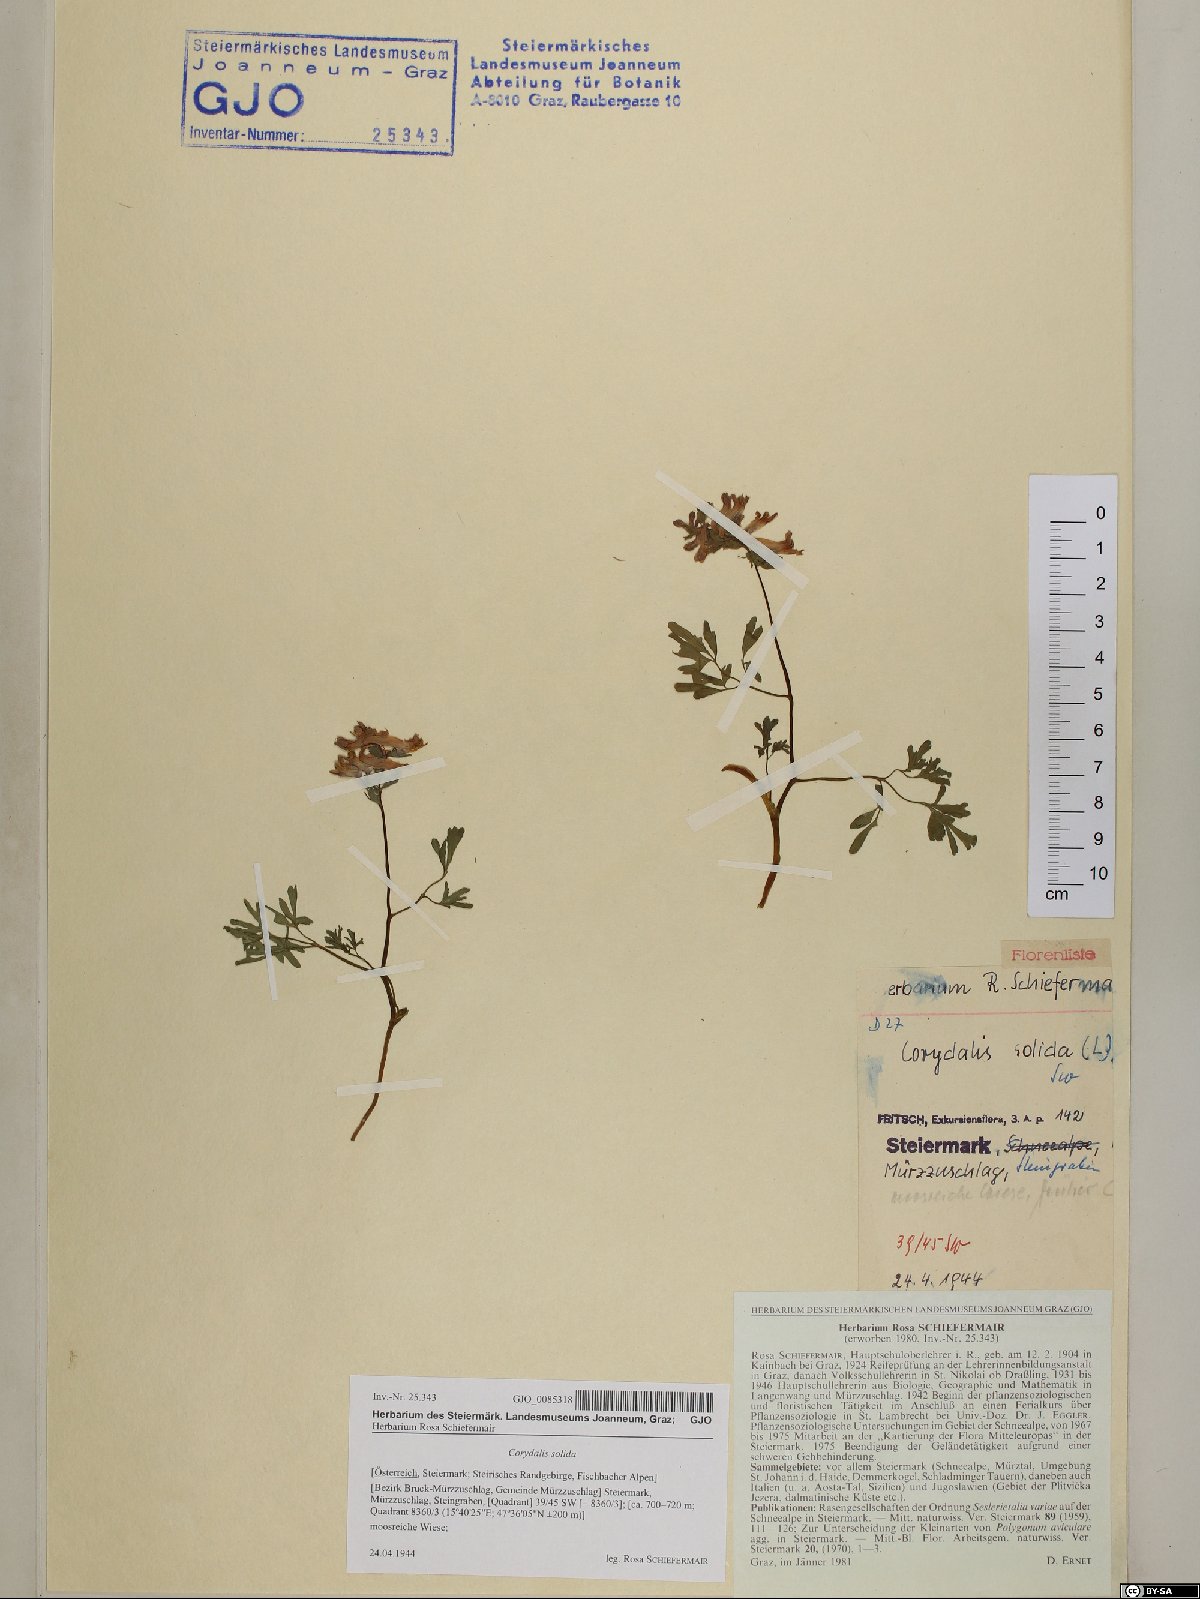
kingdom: Plantae
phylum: Tracheophyta
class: Magnoliopsida
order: Ranunculales
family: Papaveraceae
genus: Corydalis
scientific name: Corydalis solida
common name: Bird-in-a-bush
